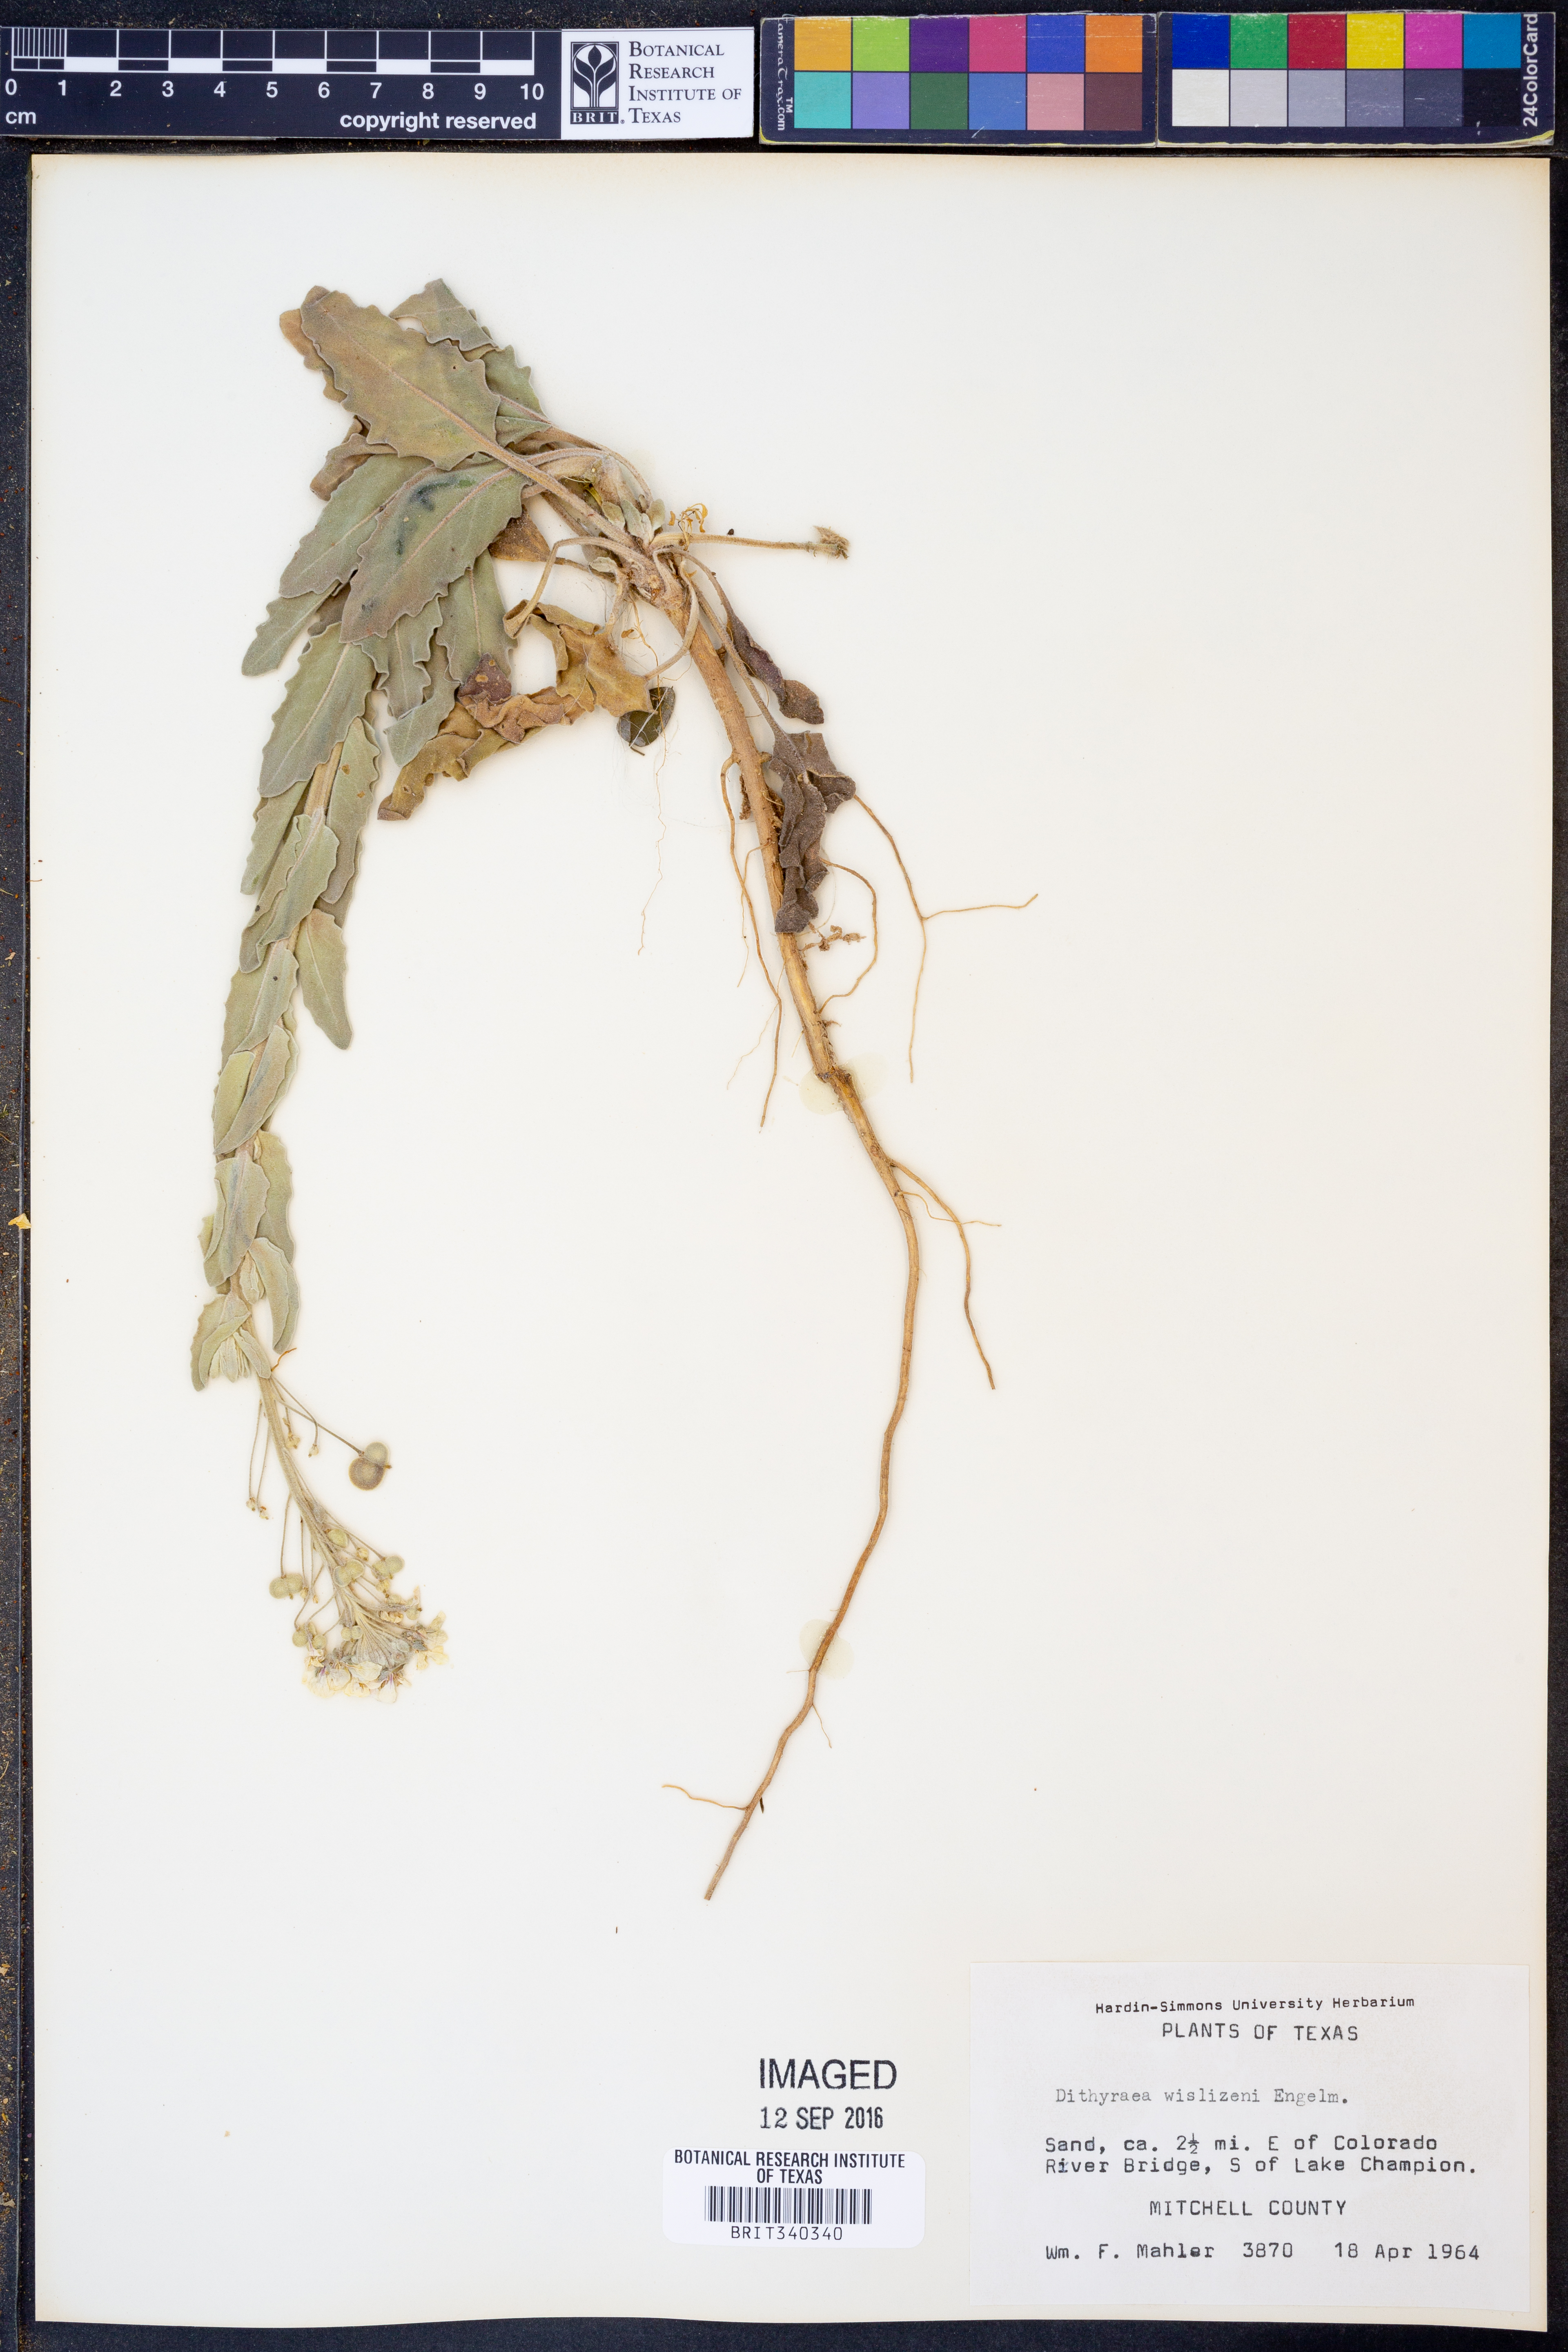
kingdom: Plantae
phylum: Tracheophyta
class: Magnoliopsida
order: Brassicales
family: Brassicaceae
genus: Dimorphocarpa
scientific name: Dimorphocarpa wislizenii
